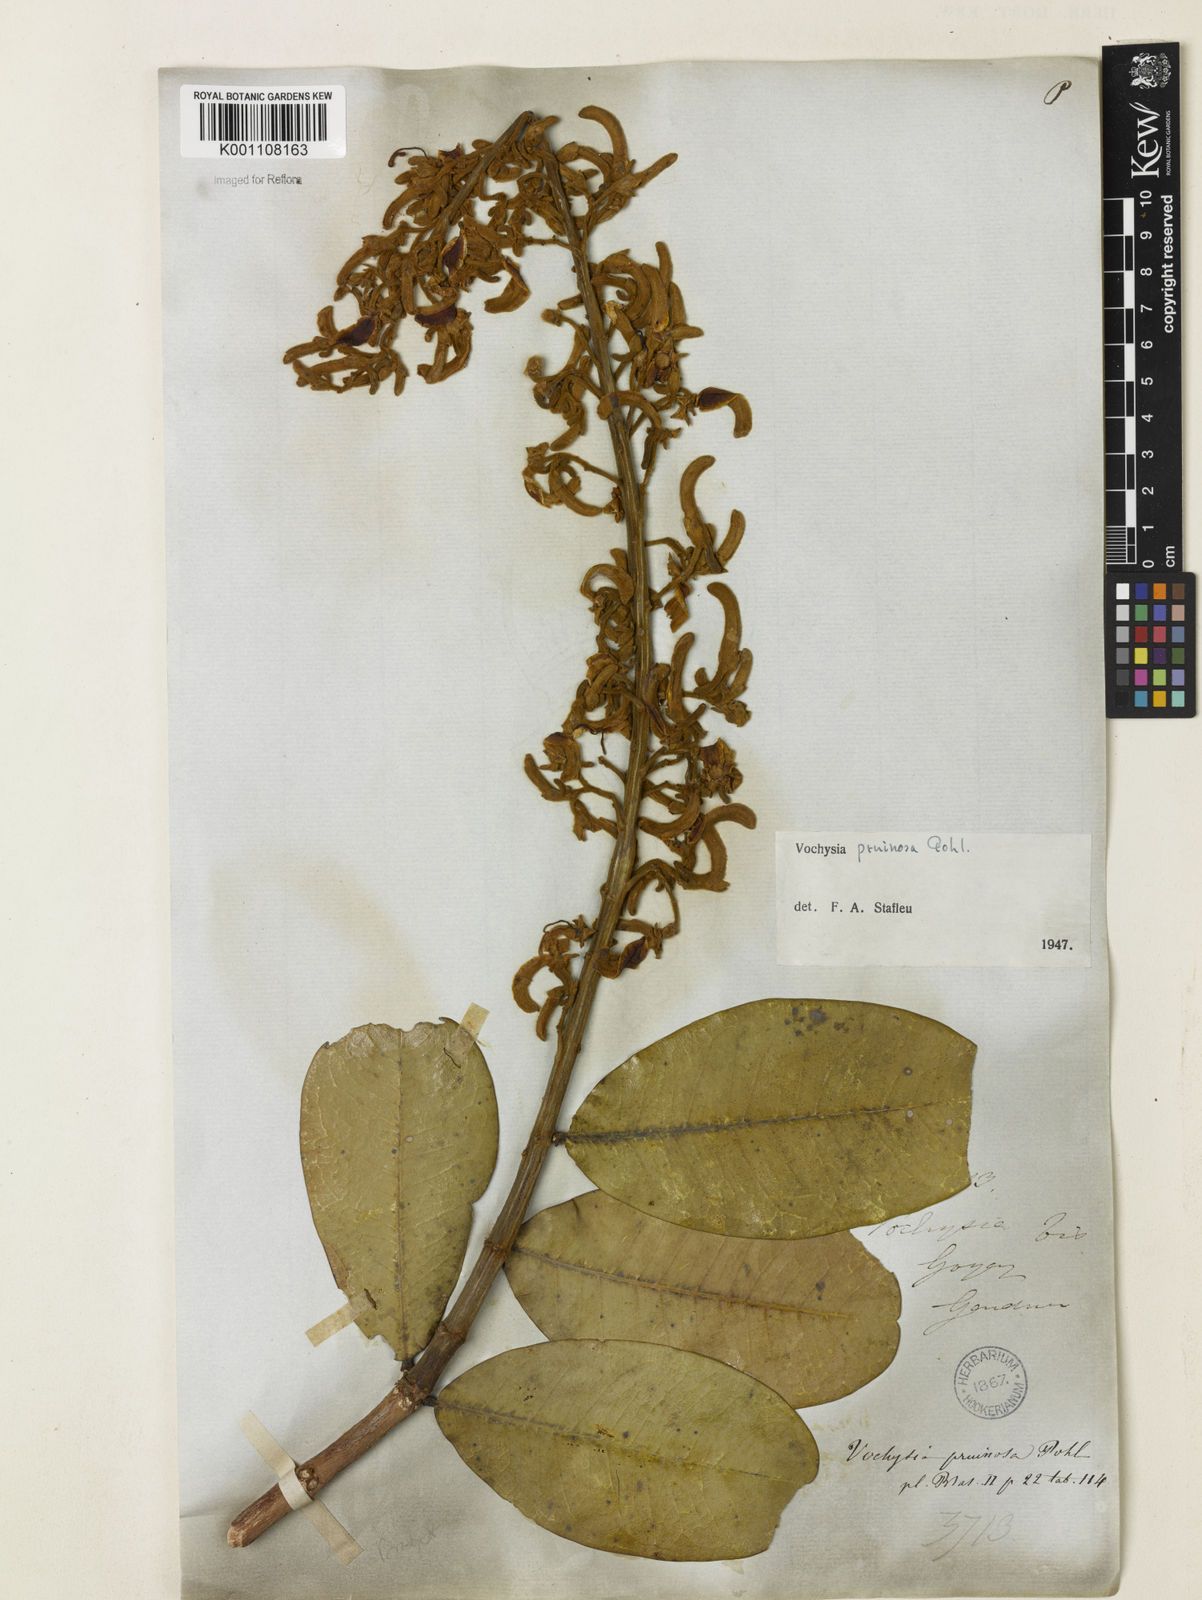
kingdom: Plantae
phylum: Tracheophyta
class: Magnoliopsida
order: Myrtales
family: Vochysiaceae
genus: Vochysia
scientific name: Vochysia pruinosa
